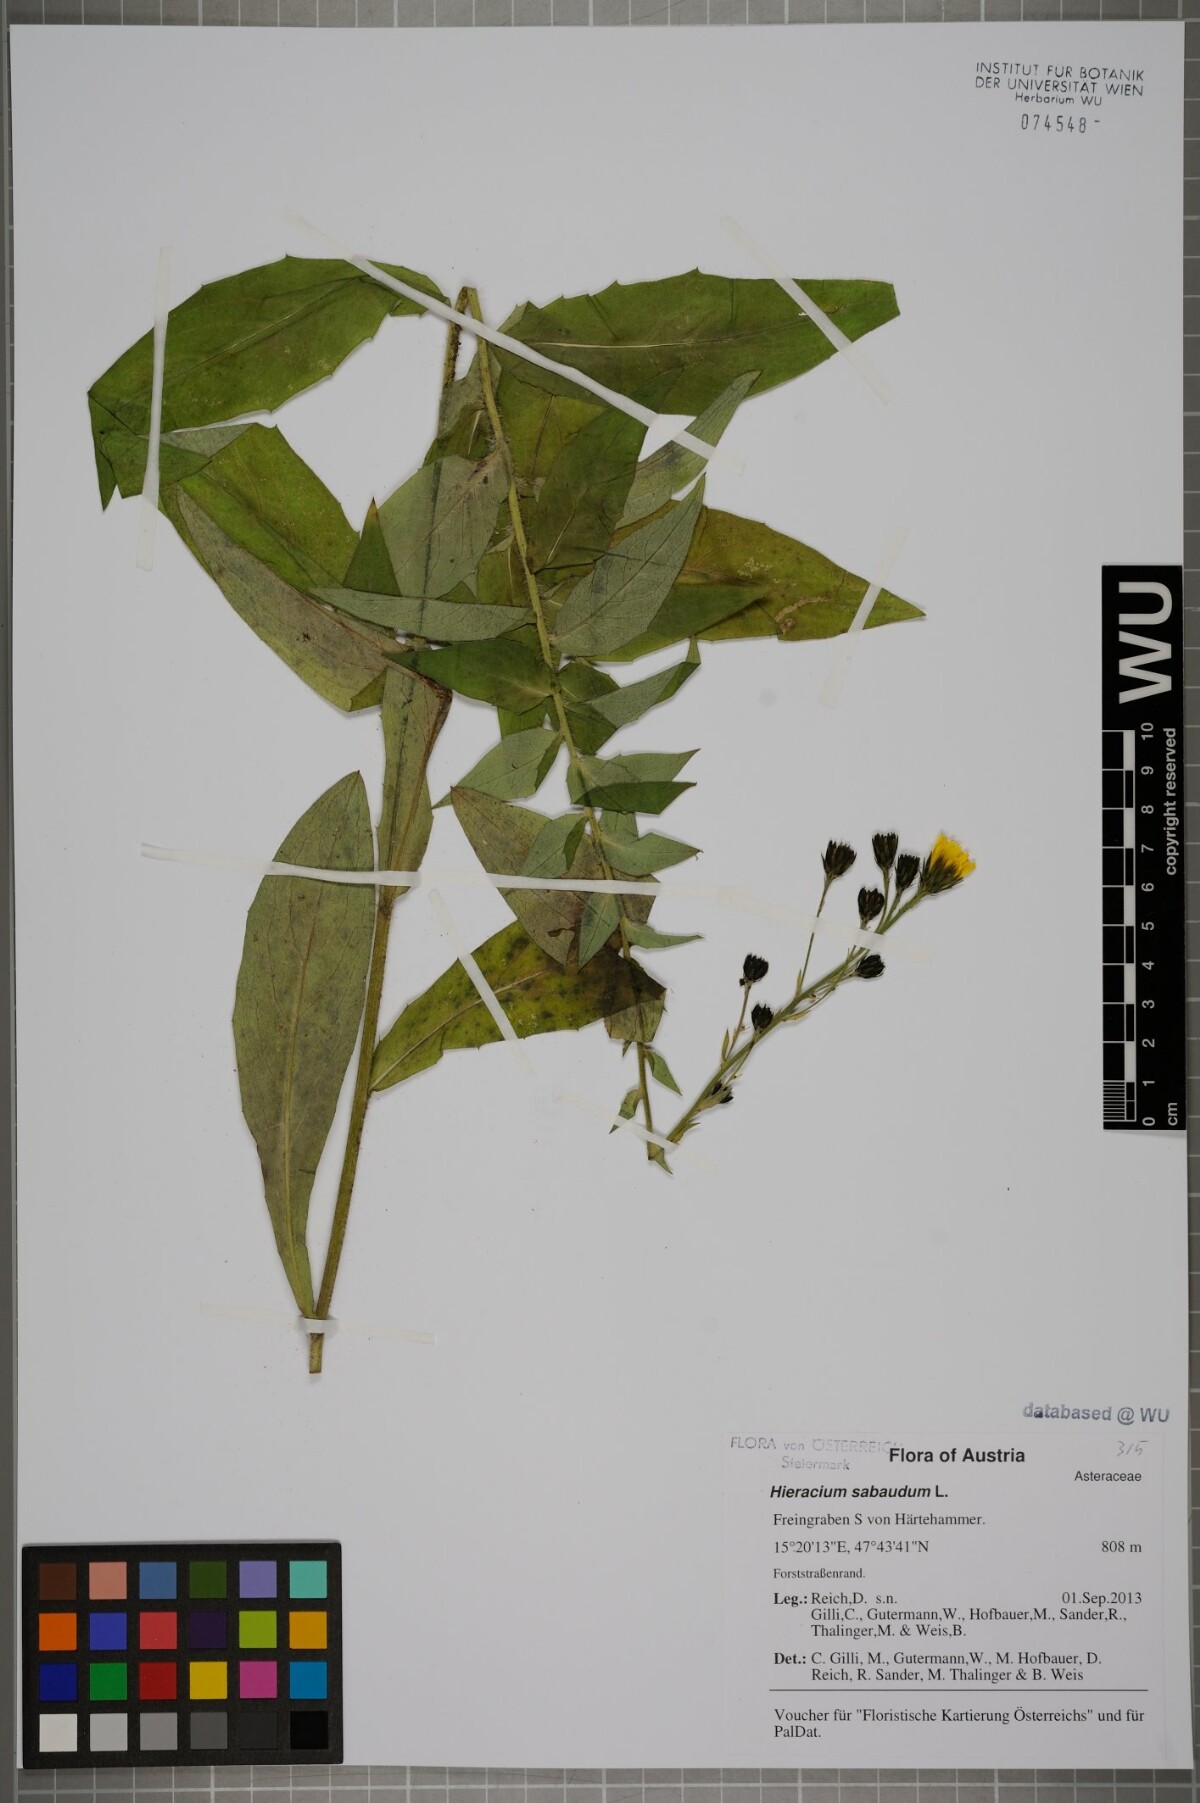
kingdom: Plantae
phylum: Tracheophyta
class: Magnoliopsida
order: Asterales
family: Asteraceae
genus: Hieracium
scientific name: Hieracium sabaudum
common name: New england hawkweed
